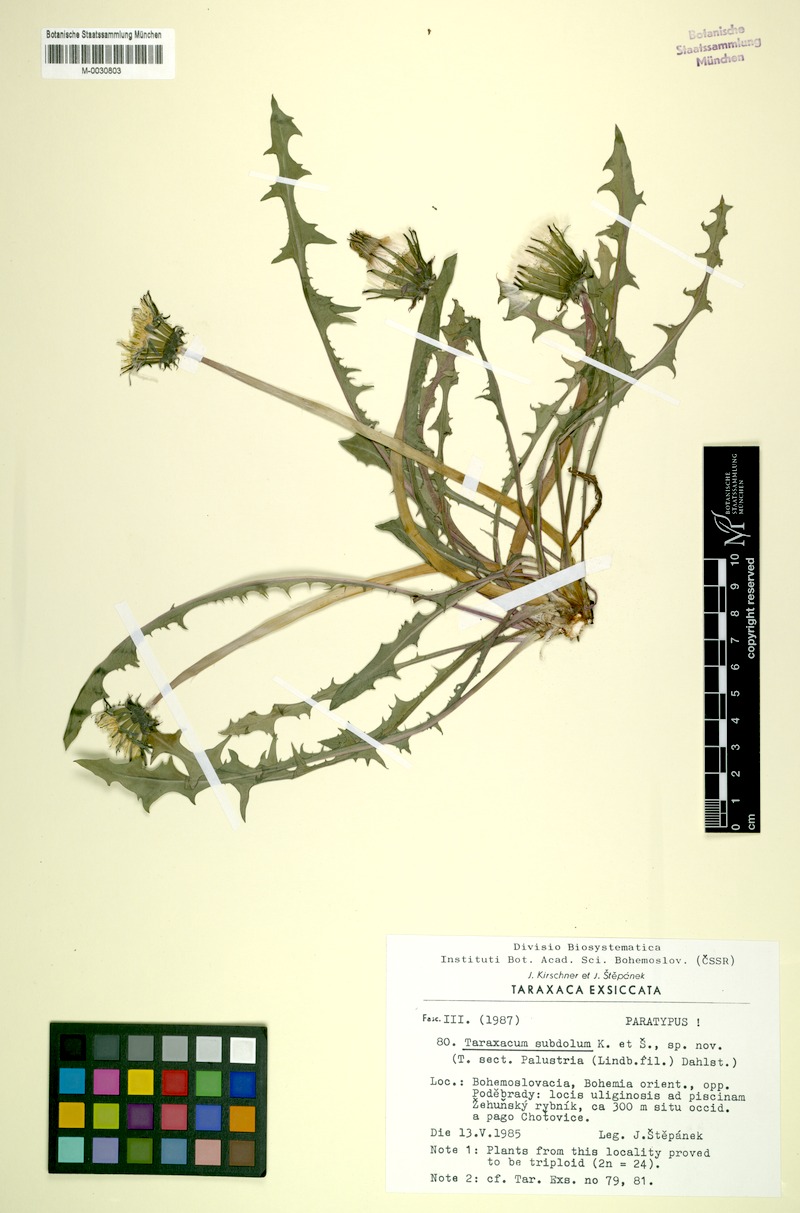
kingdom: Plantae
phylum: Tracheophyta
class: Magnoliopsida
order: Asterales
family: Asteraceae
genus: Taraxacum
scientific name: Taraxacum subdolum
